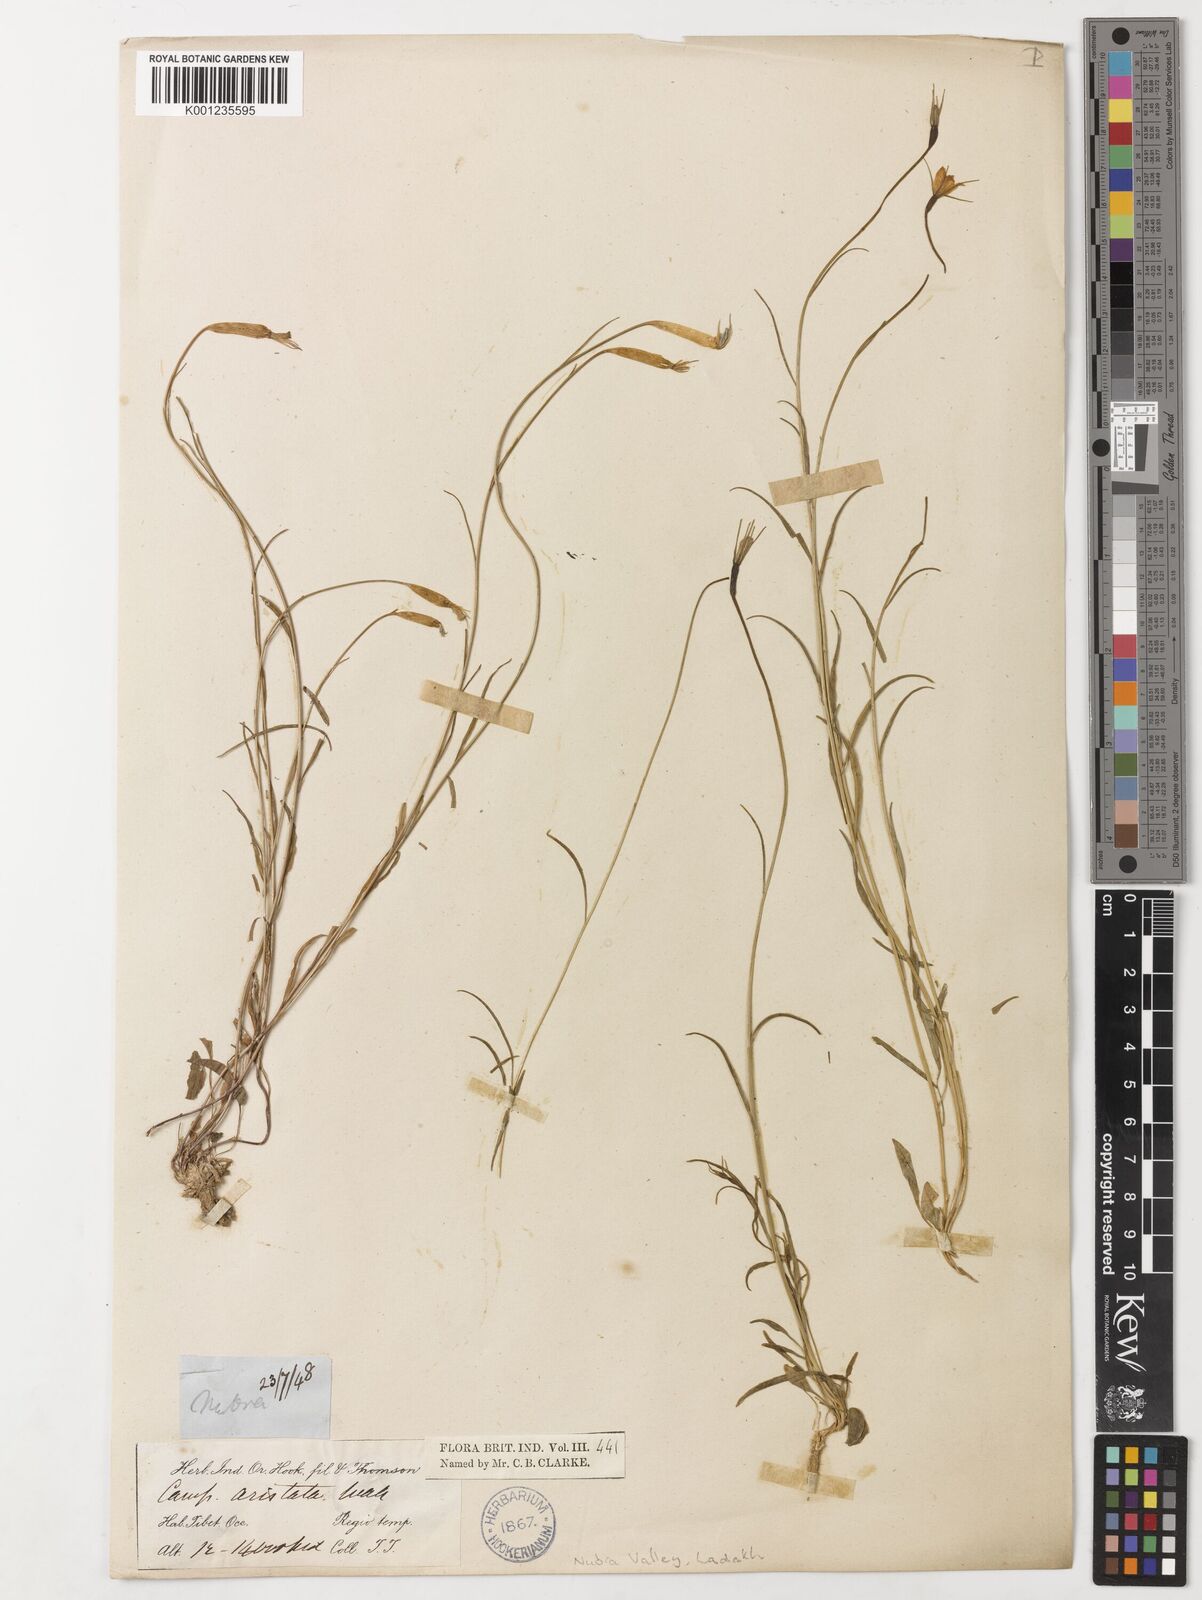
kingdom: Plantae
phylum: Tracheophyta
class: Magnoliopsida
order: Asterales
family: Campanulaceae
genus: Campanula
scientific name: Campanula aristata
